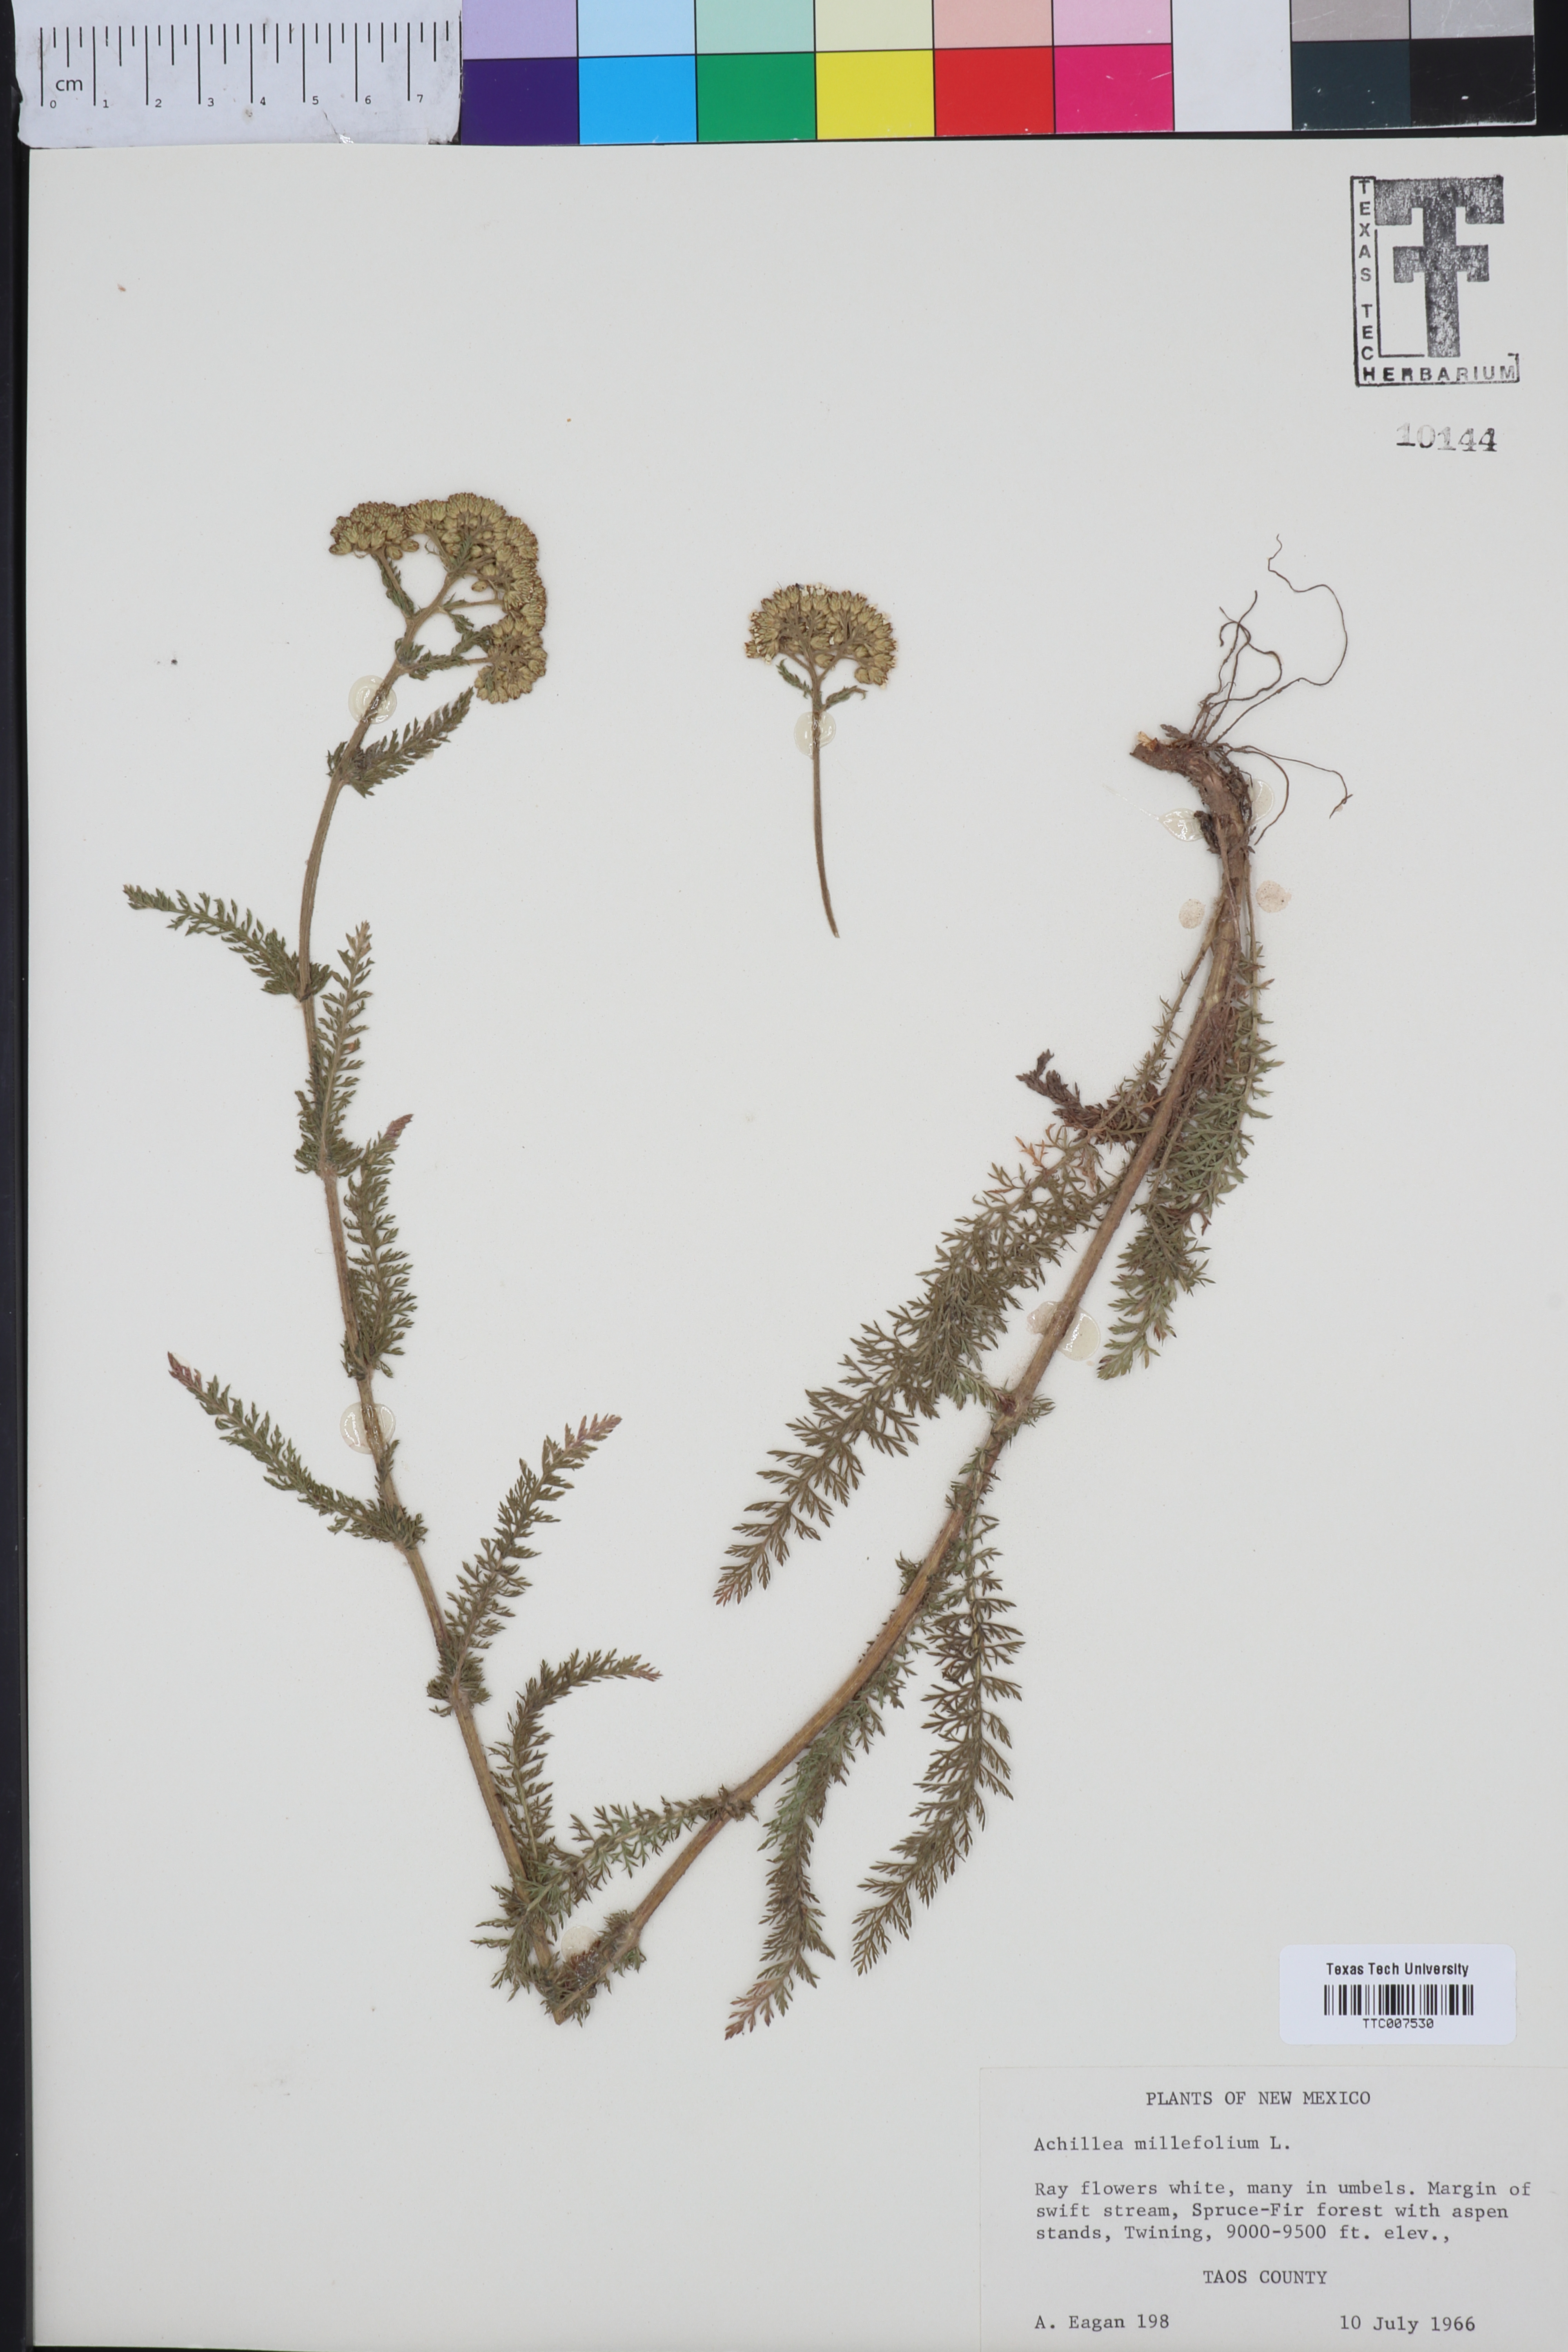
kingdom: Plantae
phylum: Tracheophyta
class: Magnoliopsida
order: Asterales
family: Asteraceae
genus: Achillea
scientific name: Achillea millefolium
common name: Yarrow
